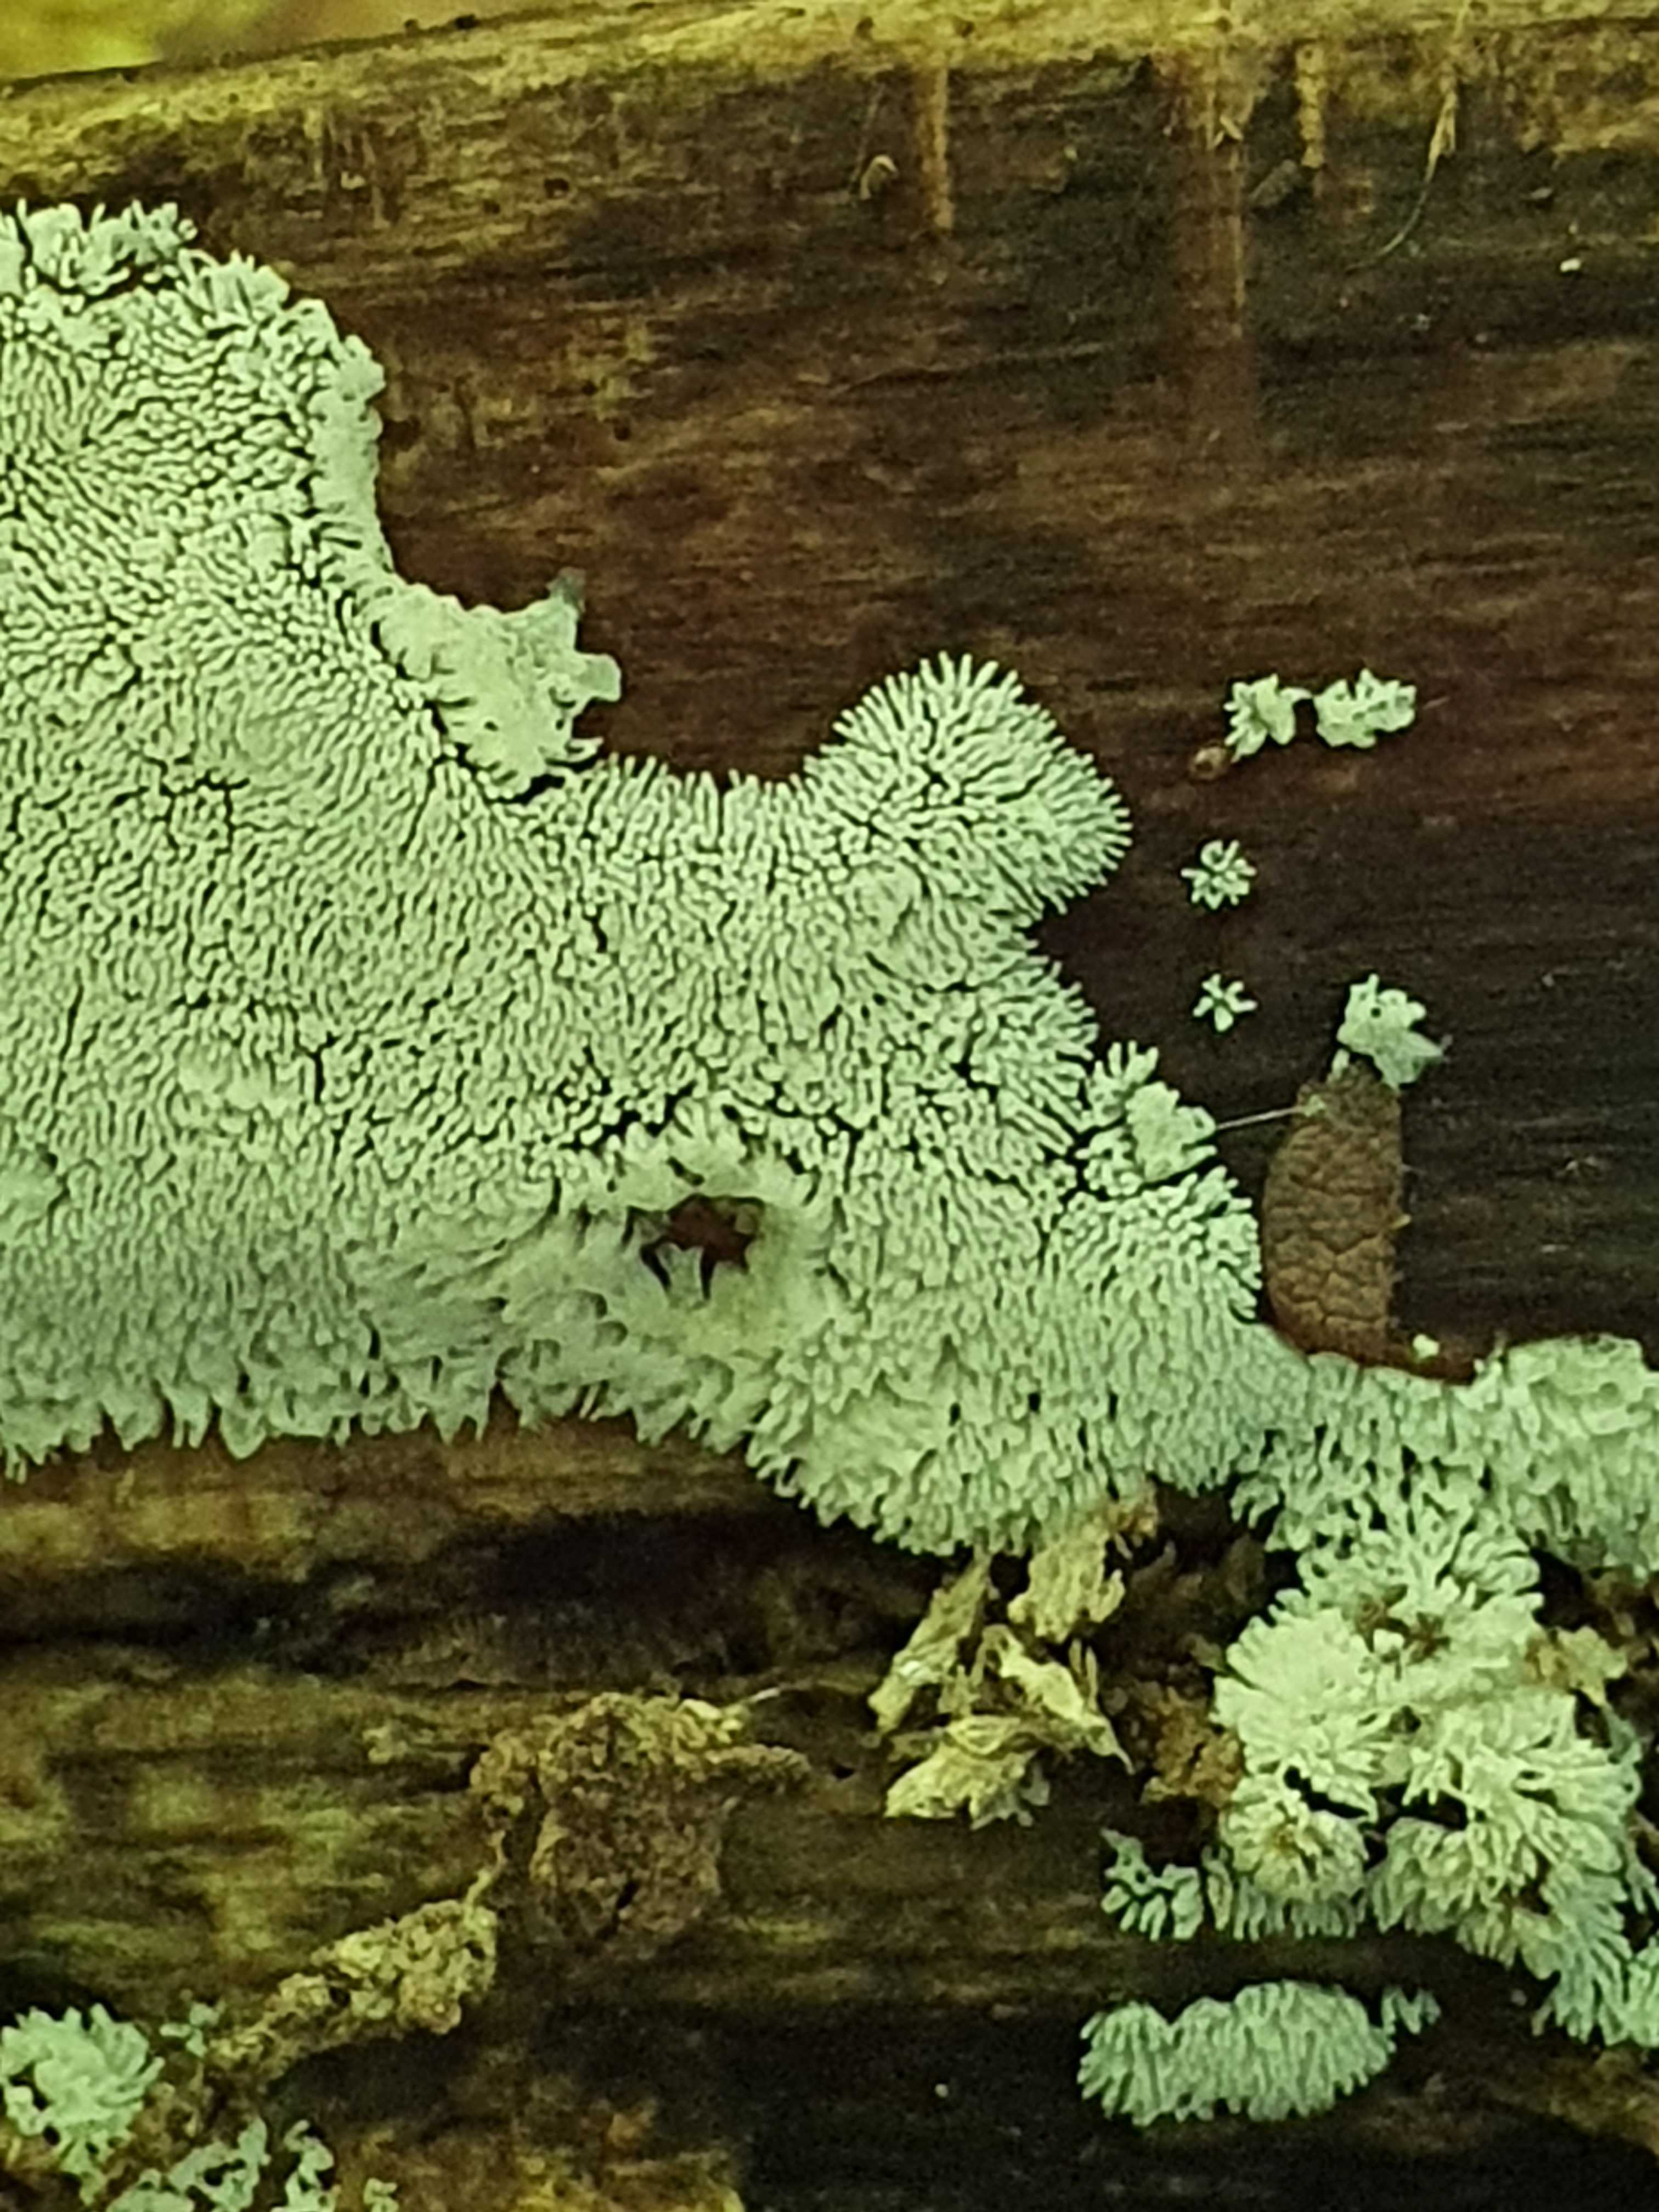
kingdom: Protozoa
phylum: Amoebozoa
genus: Ceratiomyxa
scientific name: Ceratiomyxa
